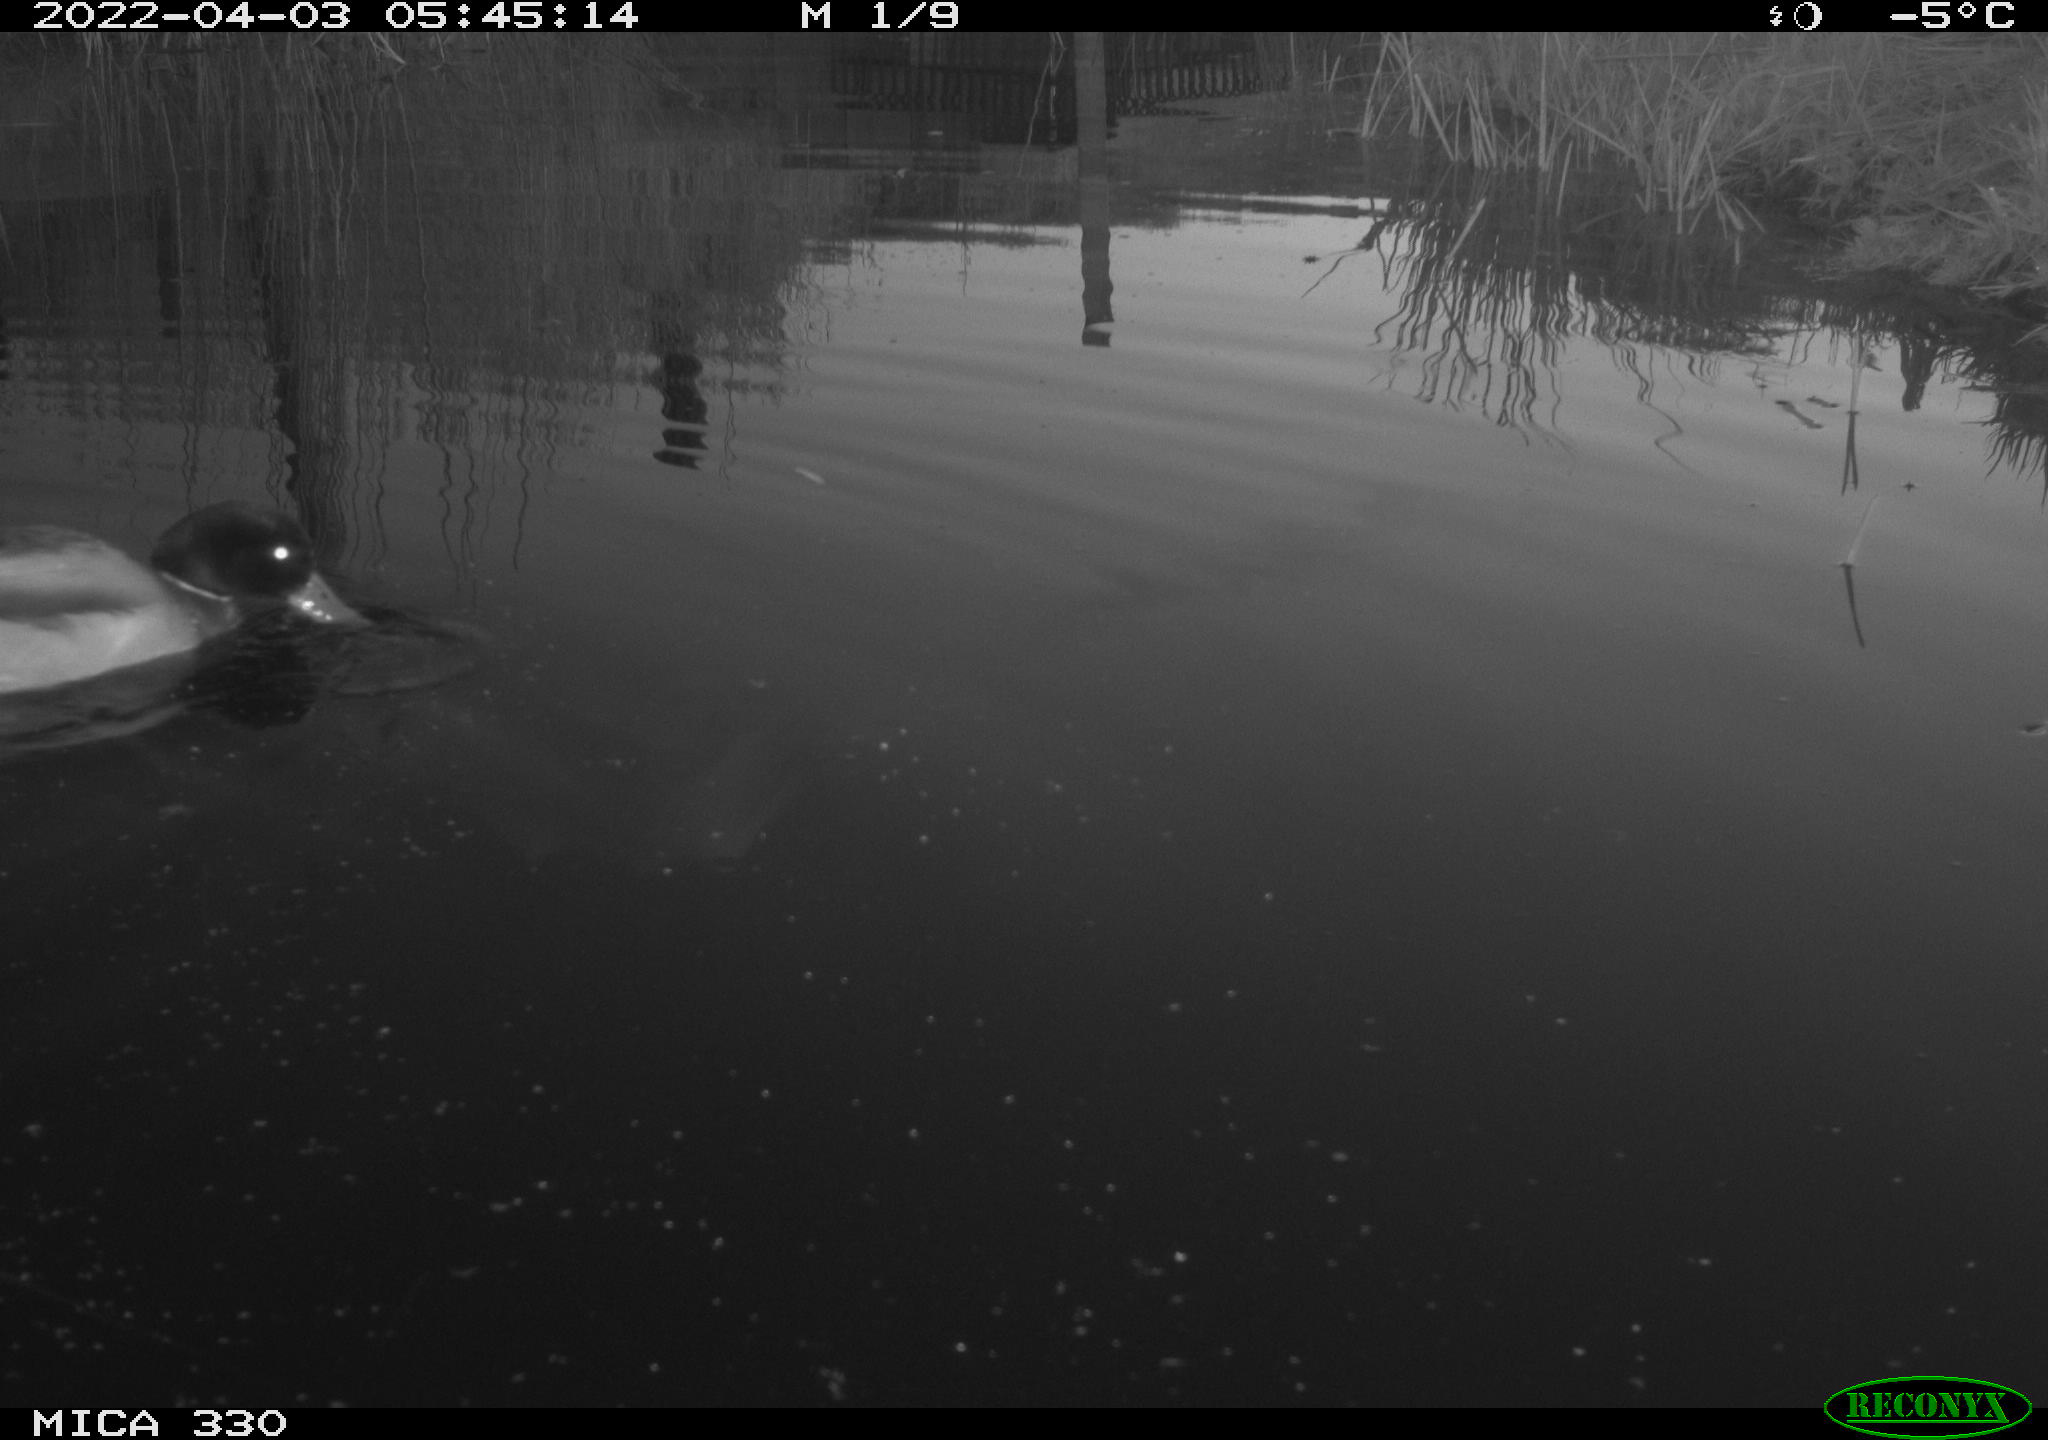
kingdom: Animalia
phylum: Chordata
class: Aves
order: Anseriformes
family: Anatidae
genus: Anas
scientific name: Anas platyrhynchos
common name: Mallard
